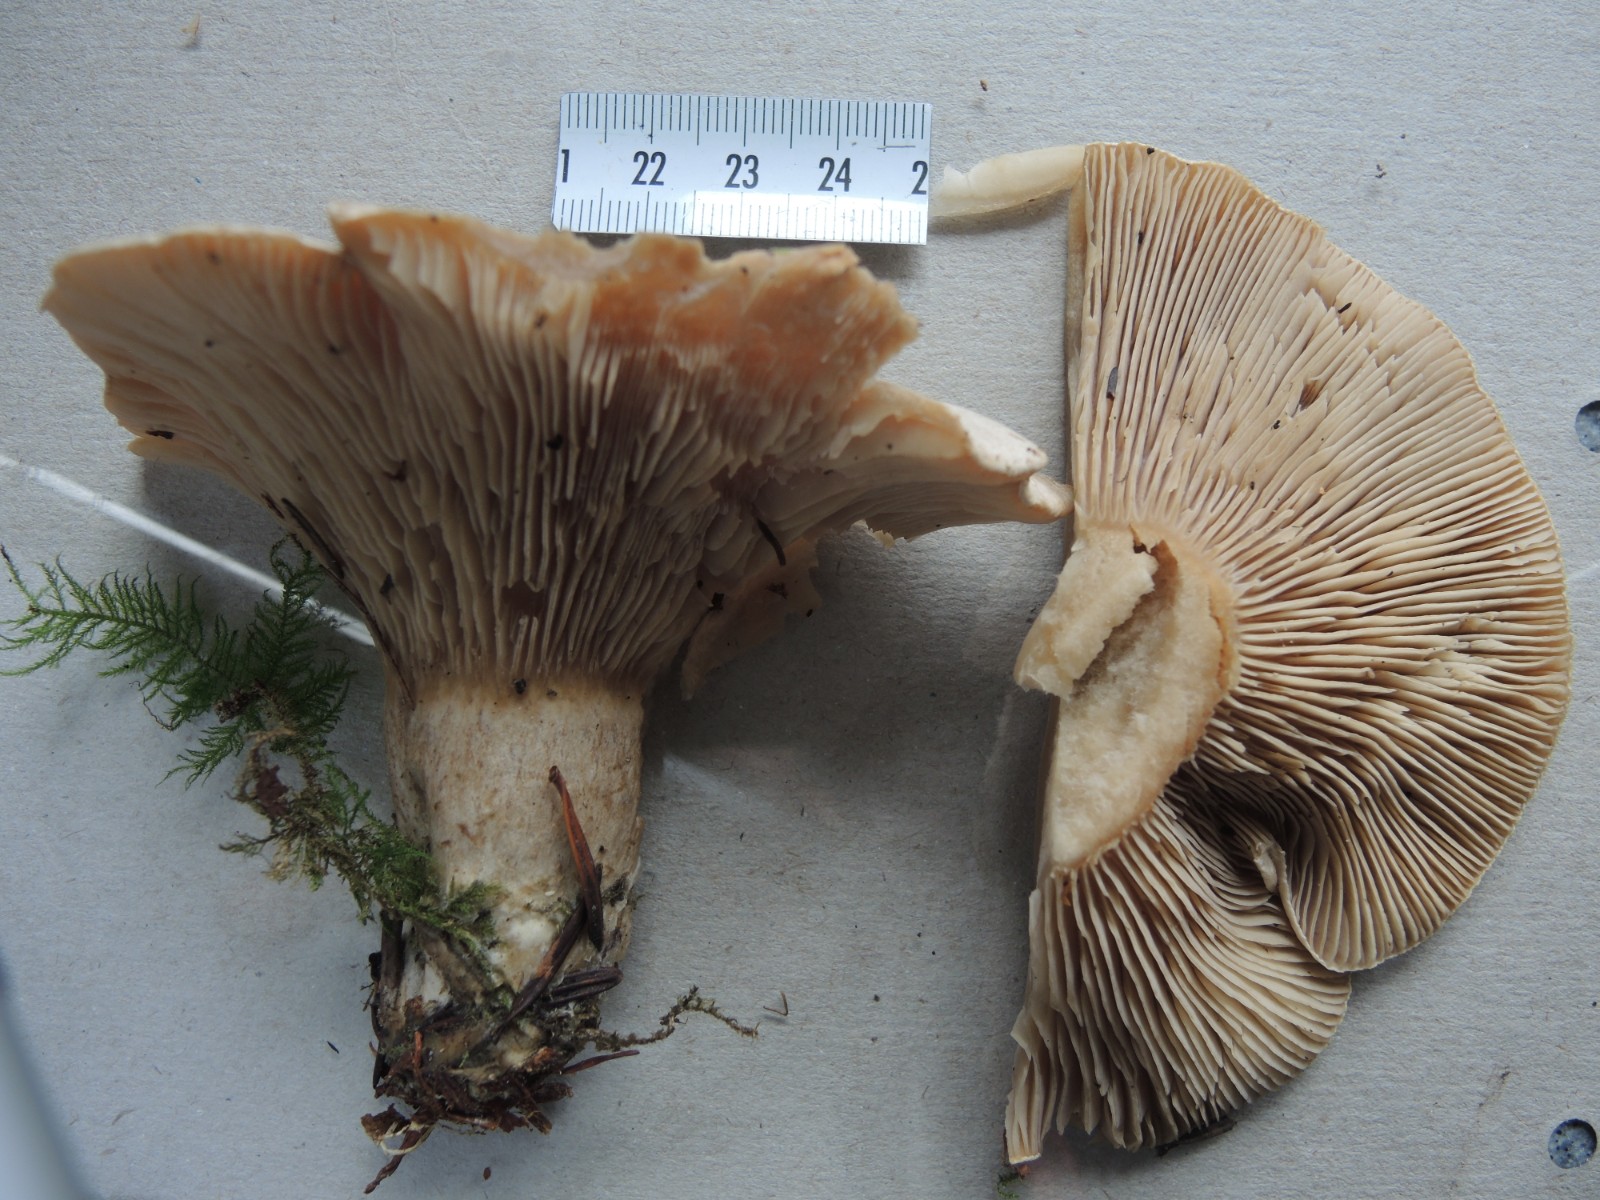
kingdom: Fungi
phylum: Basidiomycota
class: Agaricomycetes
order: Agaricales
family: Pseudoclitocybaceae
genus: Clitopaxillus
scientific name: Clitopaxillus fibulatus
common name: bestøvlet tragthat
